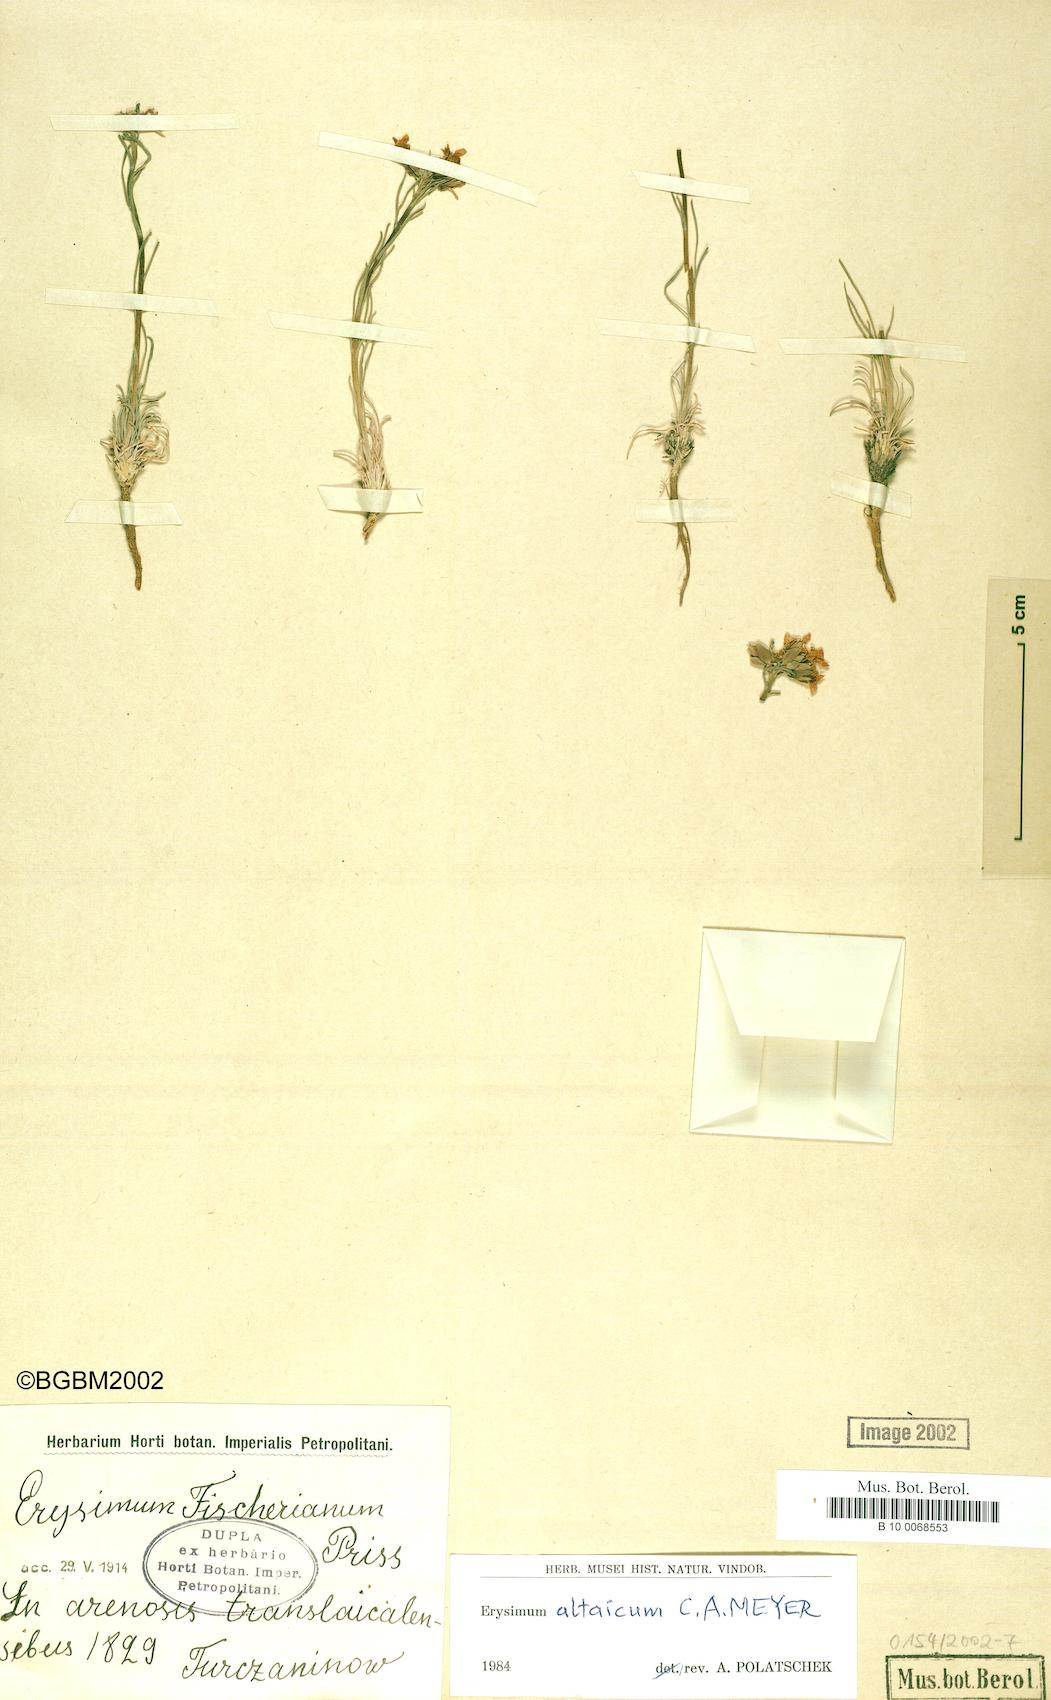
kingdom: Plantae
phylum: Tracheophyta
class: Magnoliopsida
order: Brassicales
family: Brassicaceae
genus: Erysimum
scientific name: Erysimum altaicum
